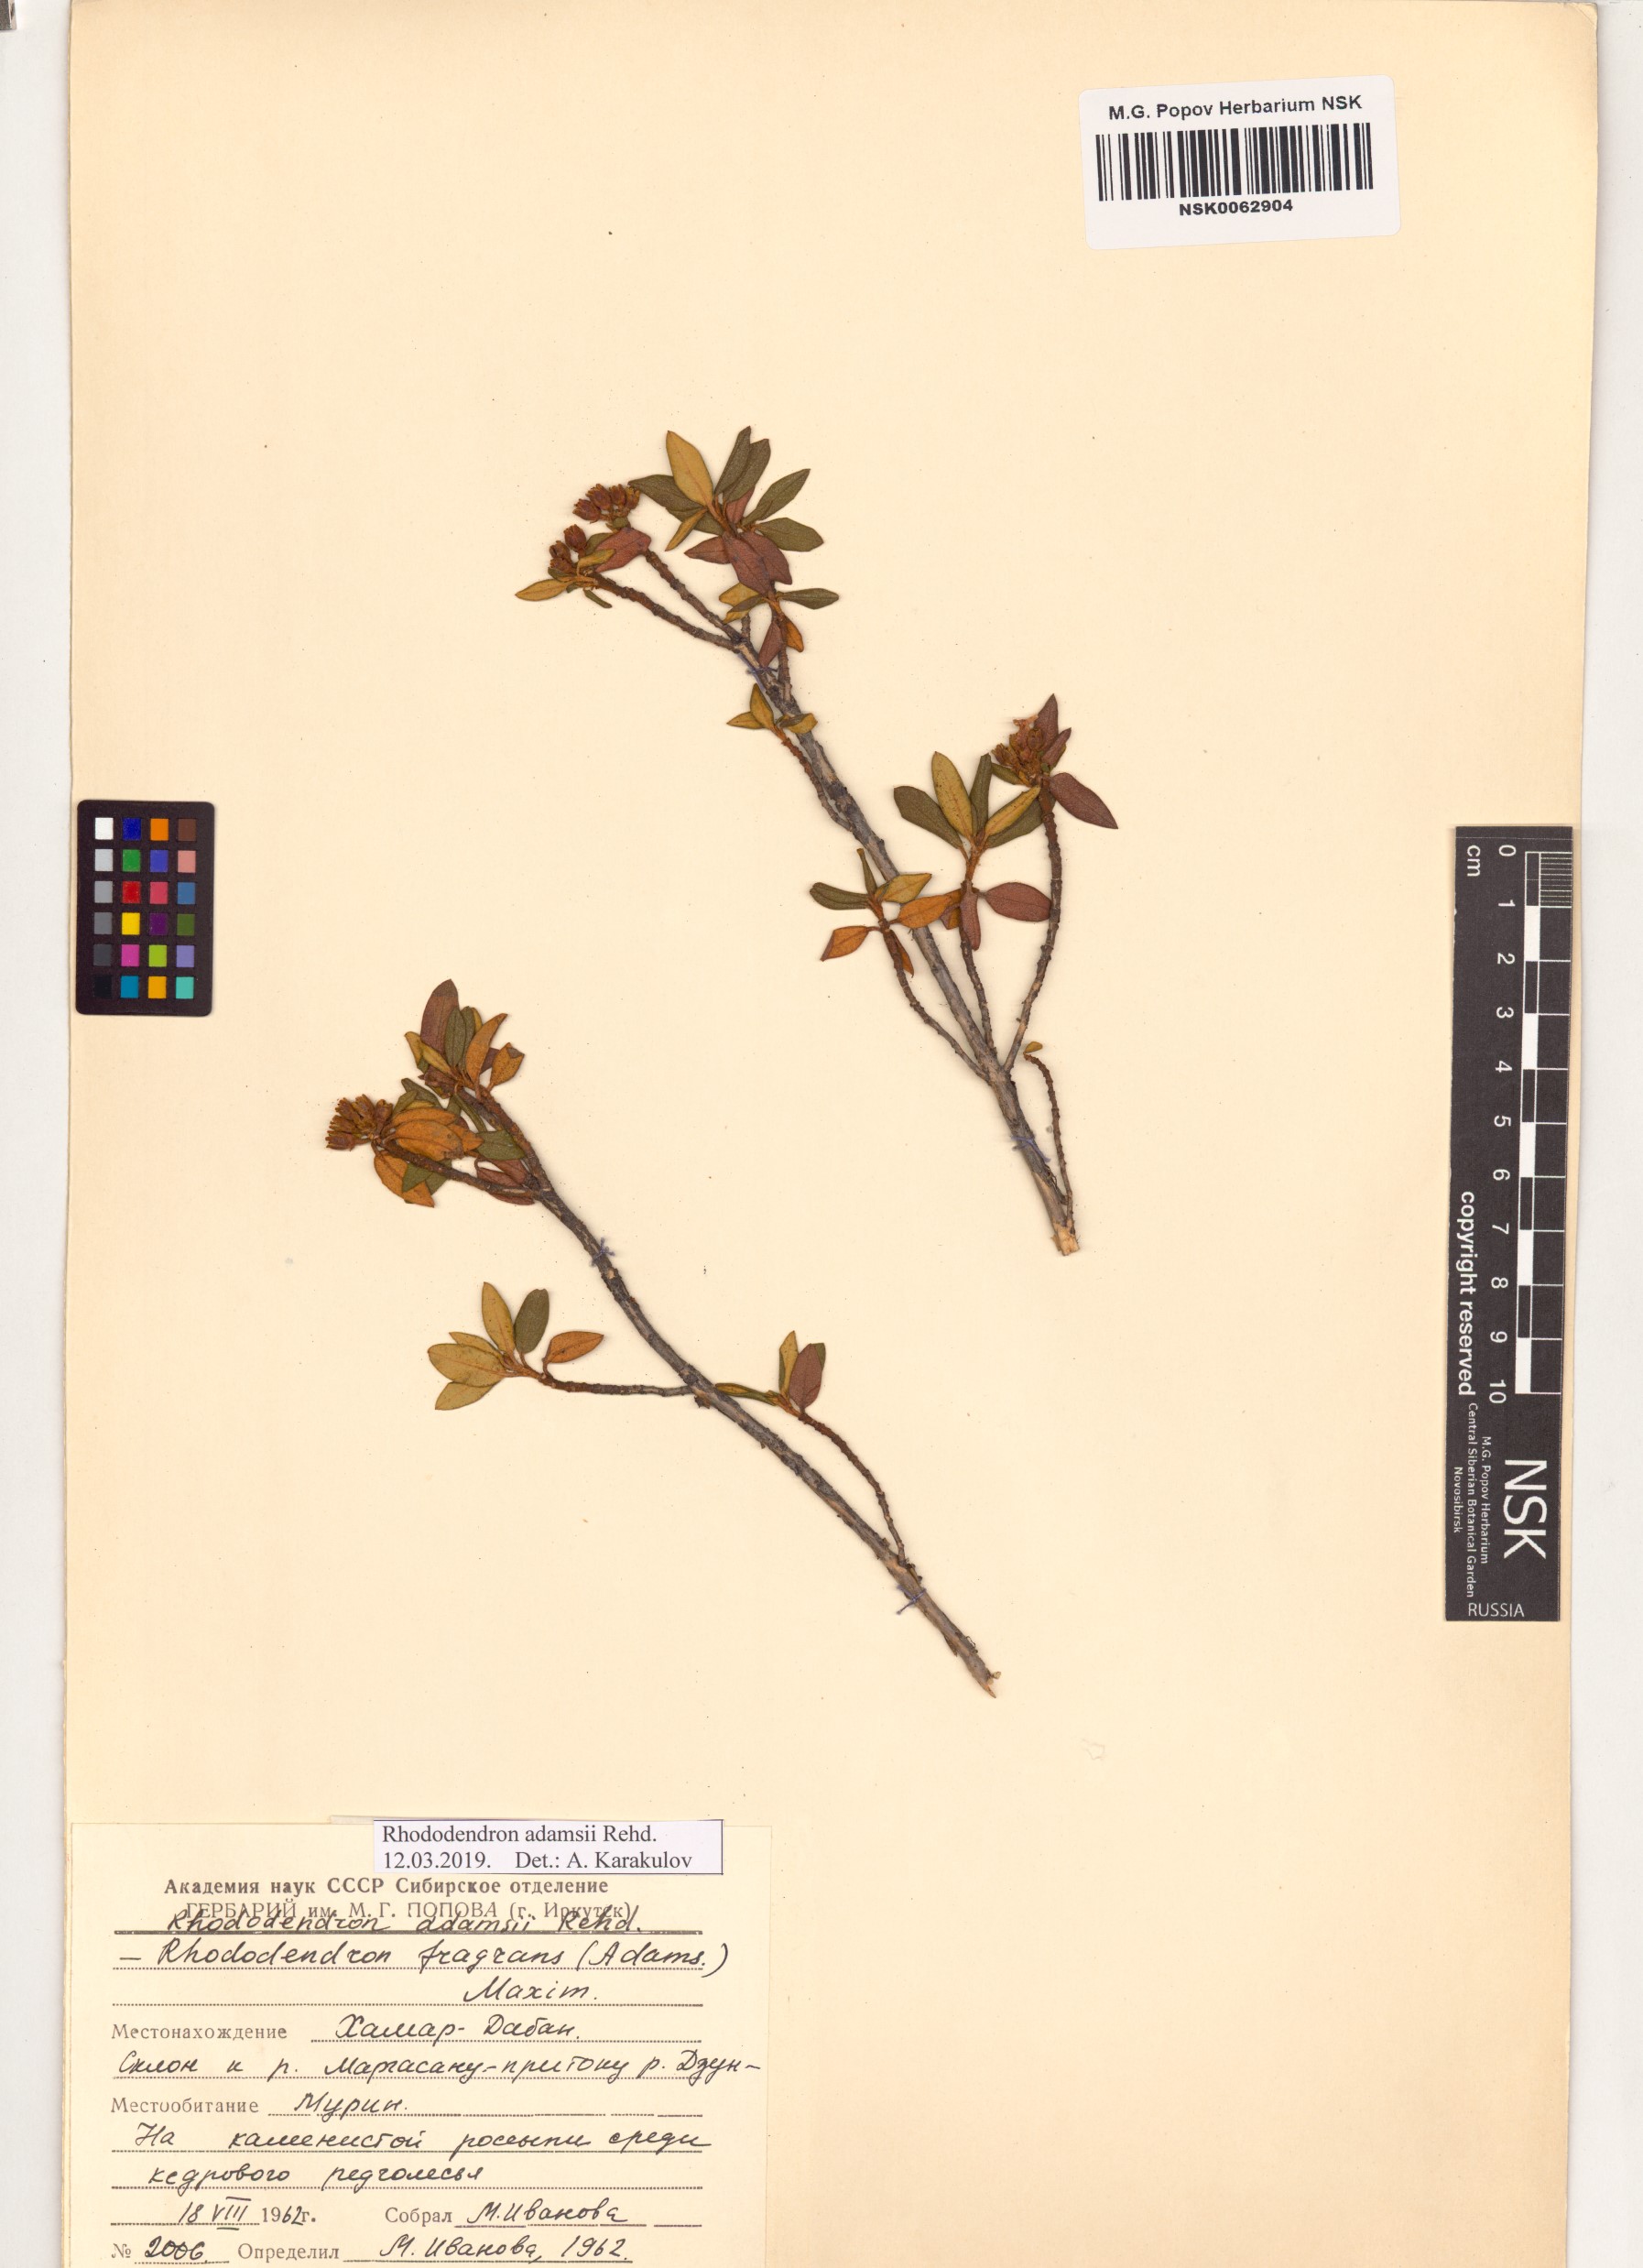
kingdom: Plantae
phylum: Tracheophyta
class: Magnoliopsida
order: Ericales
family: Ericaceae
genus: Rhododendron
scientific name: Rhododendron adamsii
